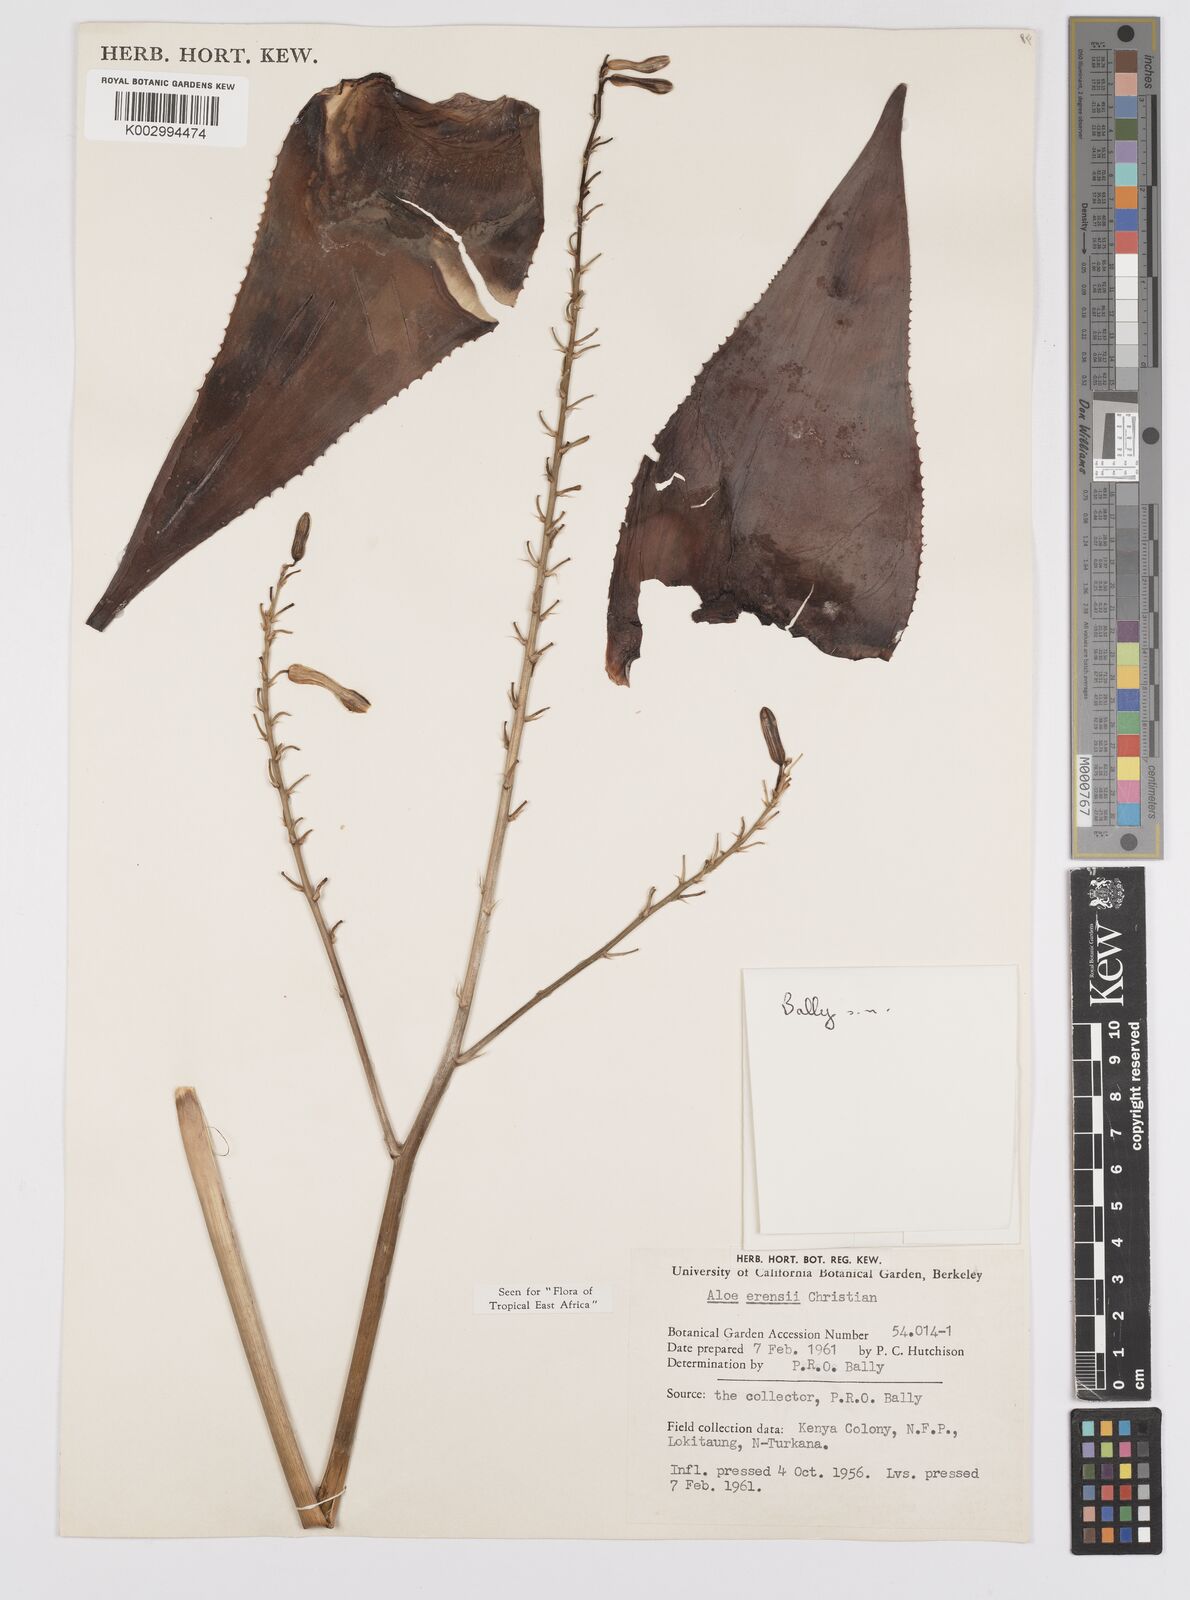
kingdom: Plantae
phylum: Tracheophyta
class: Liliopsida
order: Asparagales
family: Asphodelaceae
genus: Aloe
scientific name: Aloe erensii
